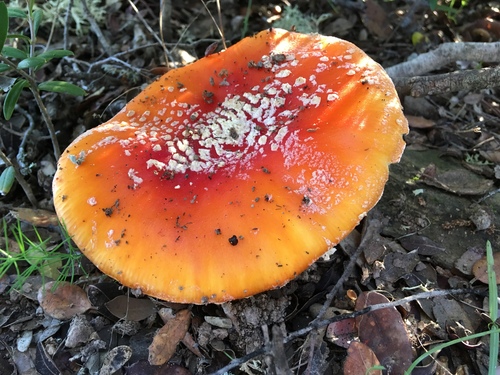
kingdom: Fungi
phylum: Basidiomycota
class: Agaricomycetes
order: Agaricales
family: Amanitaceae
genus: Amanita
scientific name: Amanita muscaria
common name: Fly agaric
